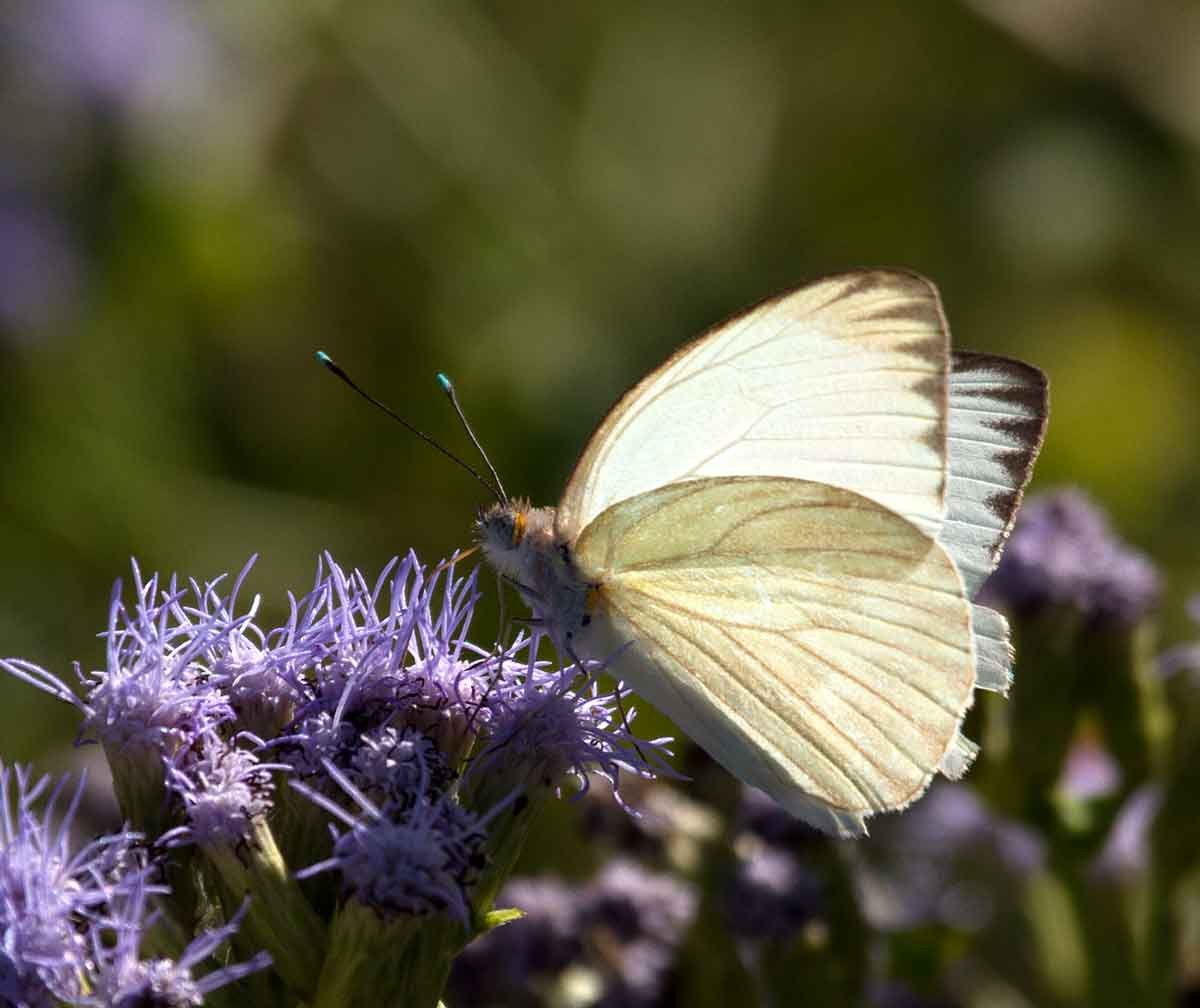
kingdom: Animalia
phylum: Arthropoda
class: Insecta
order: Lepidoptera
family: Pieridae
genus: Ascia
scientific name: Ascia monuste
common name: Great Southern White
